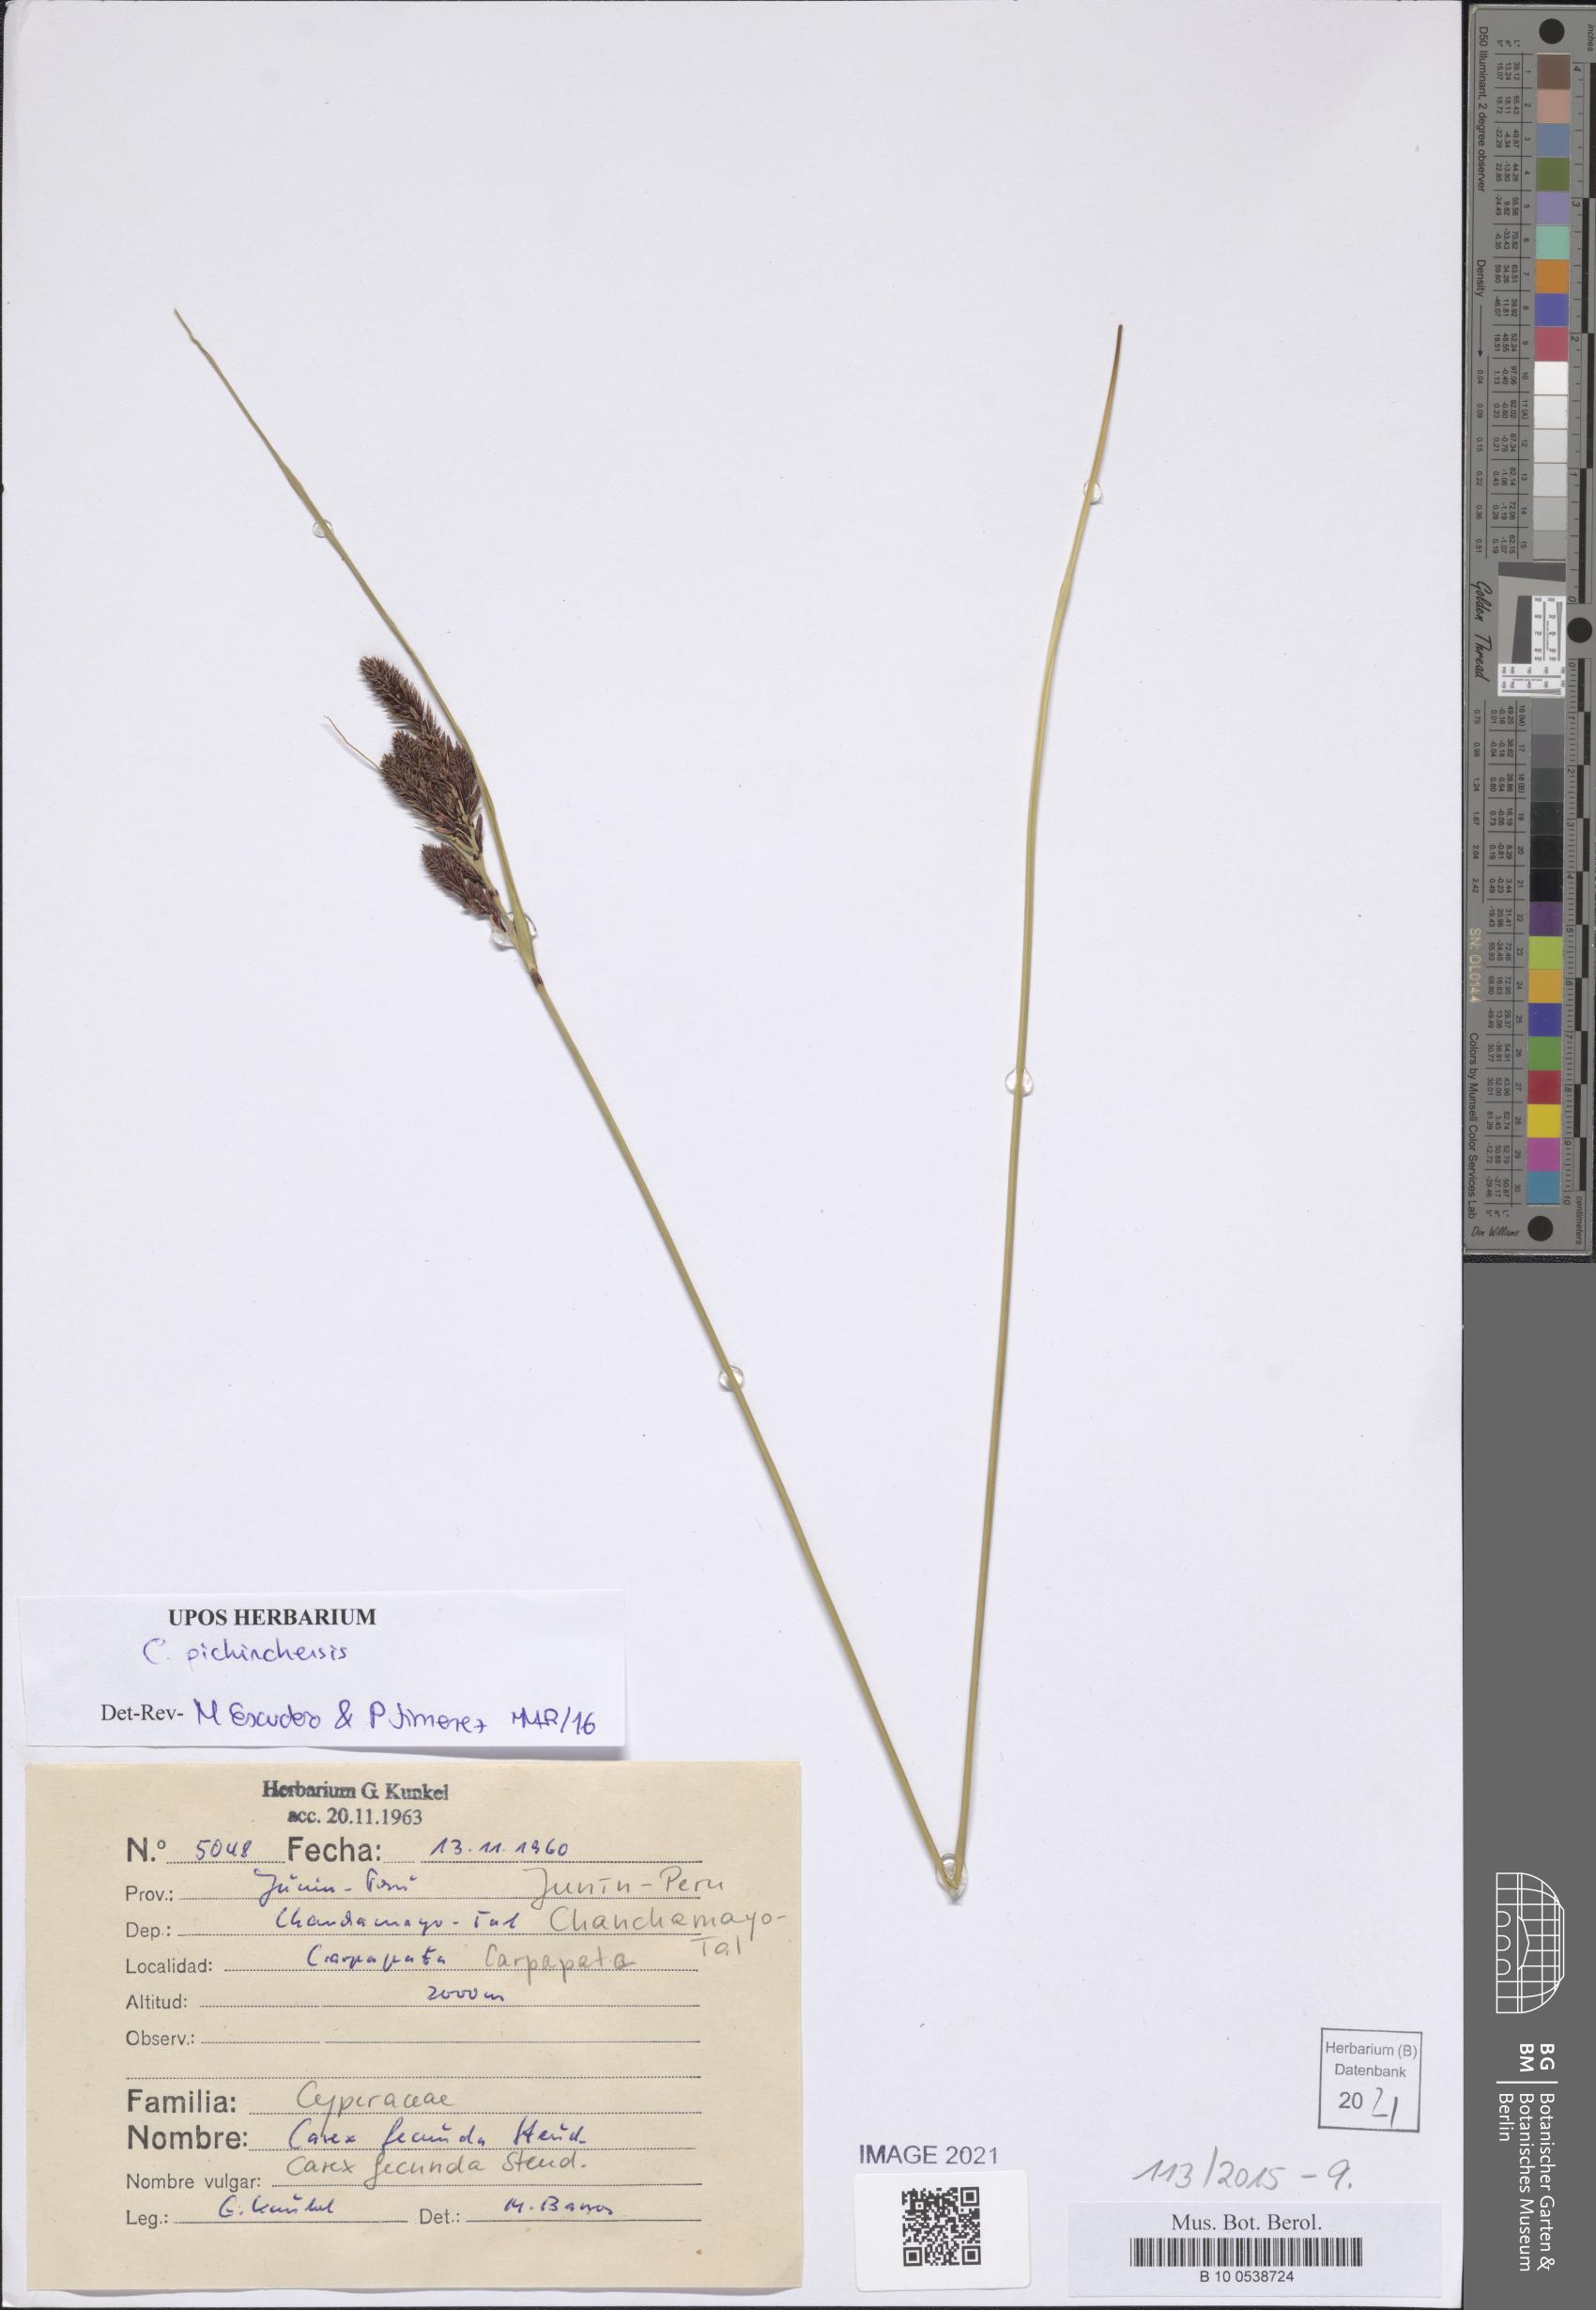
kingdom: Plantae
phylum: Tracheophyta
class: Liliopsida
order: Poales
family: Cyperaceae
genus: Carex
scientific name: Carex pichinchensis
